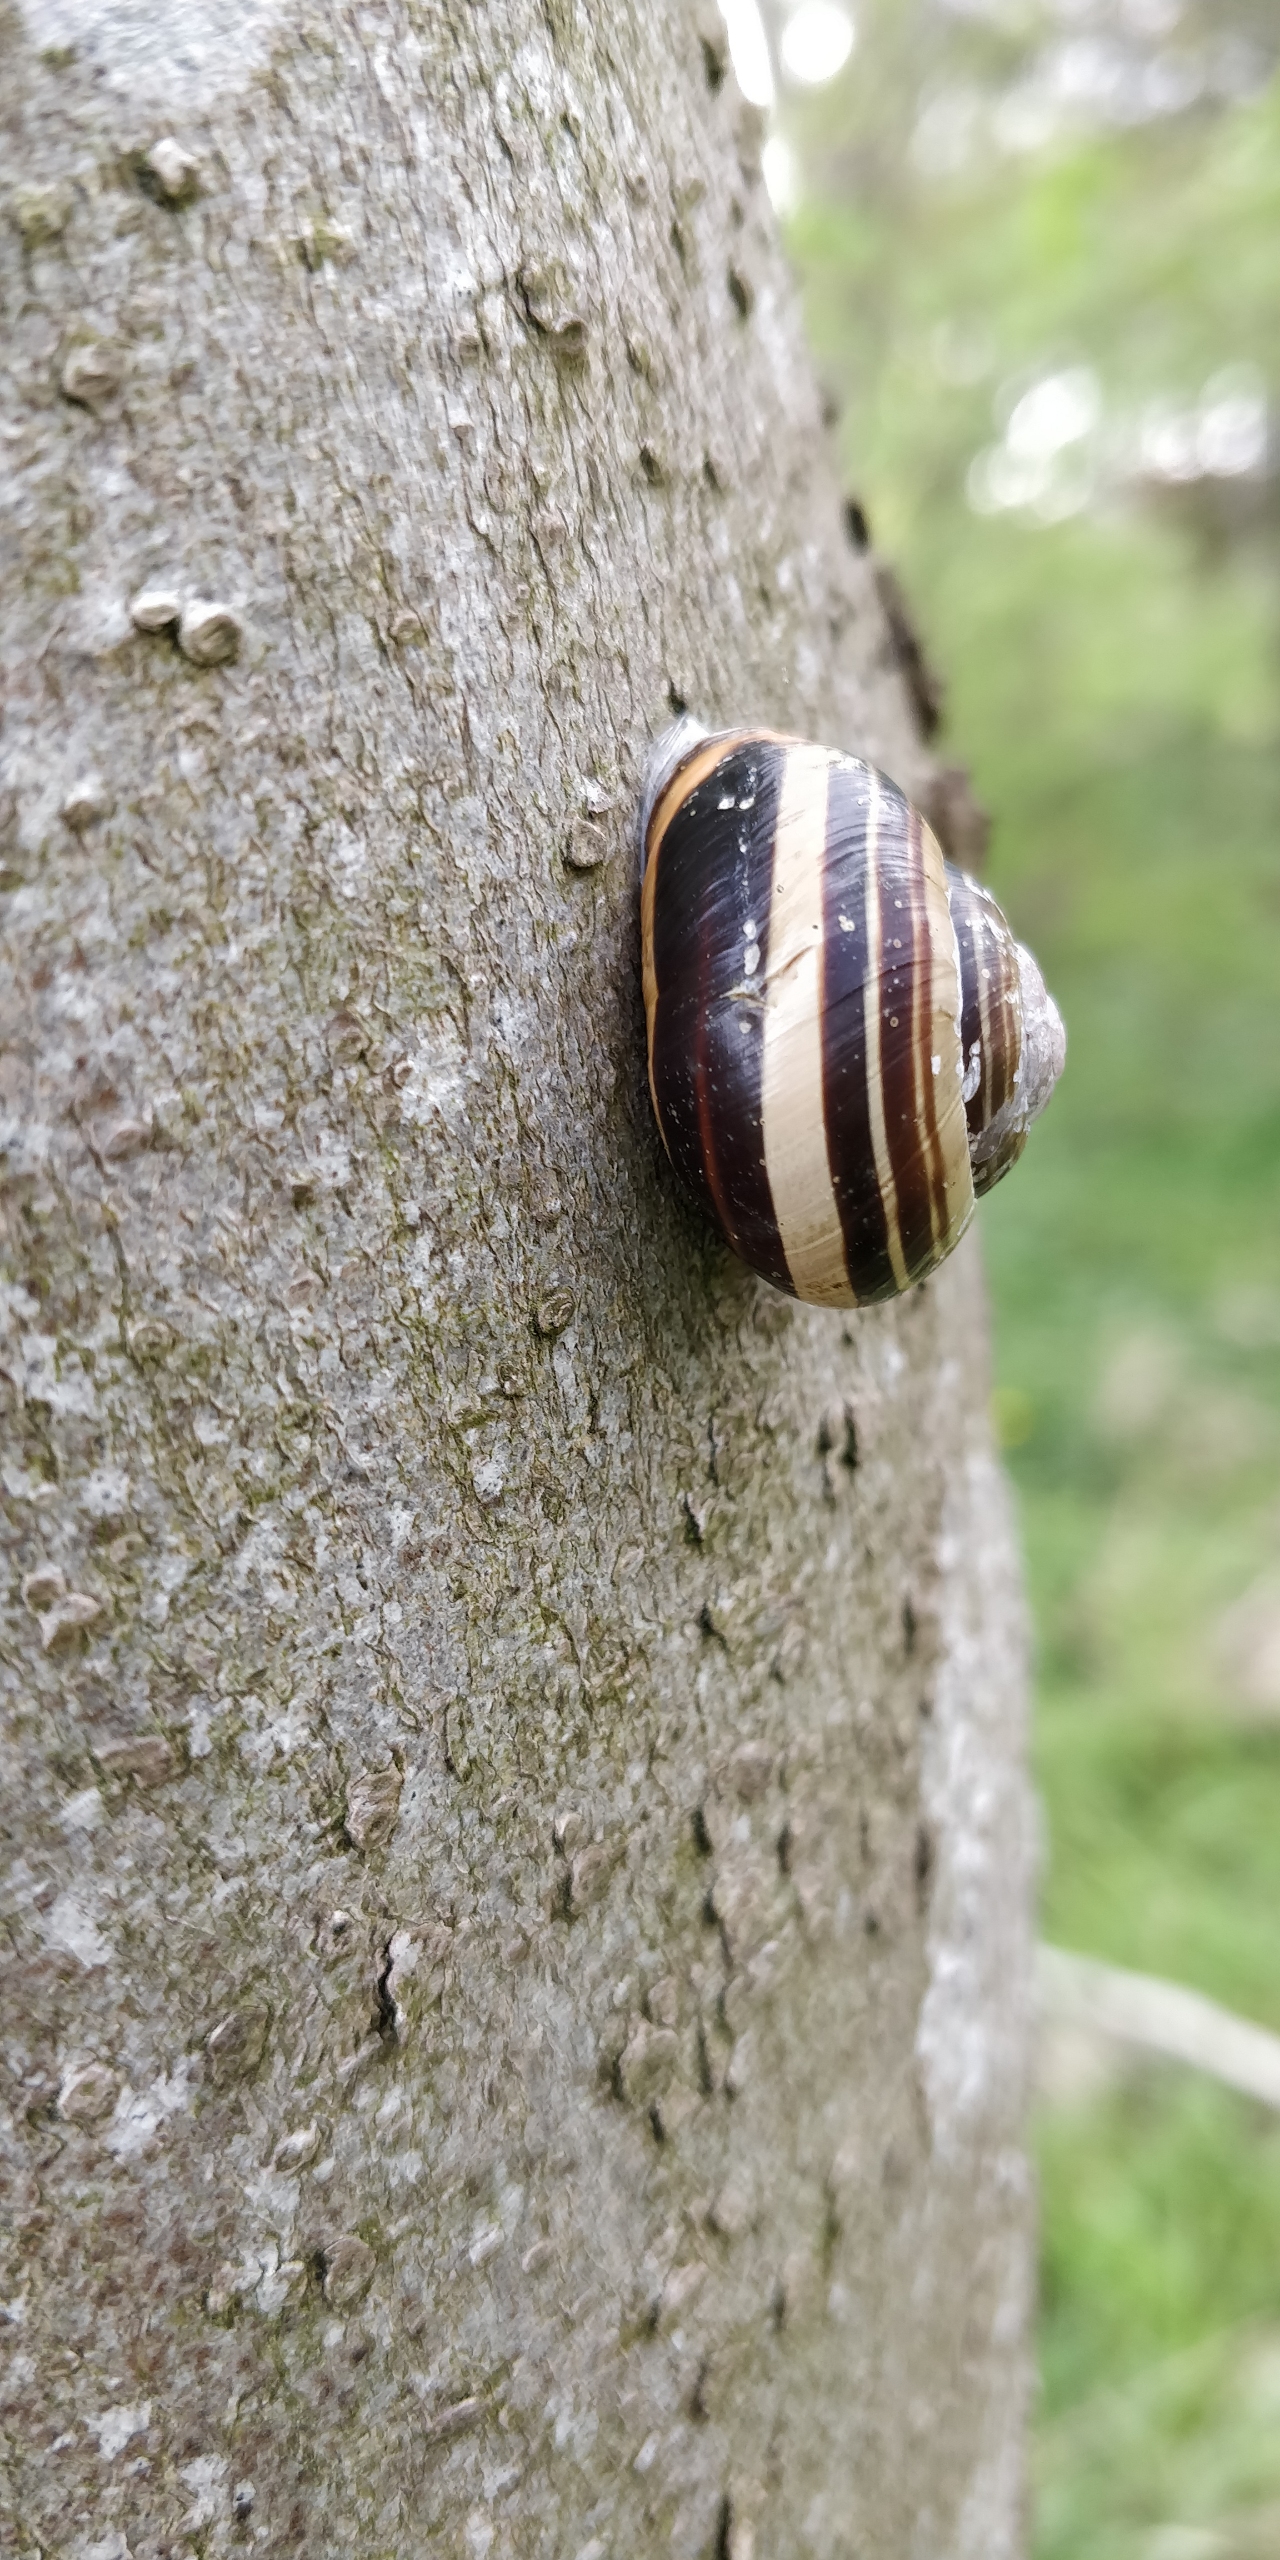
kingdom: Animalia
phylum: Mollusca
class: Gastropoda
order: Stylommatophora
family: Helicidae
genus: Cepaea
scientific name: Cepaea nemoralis
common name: Lundsnegl
